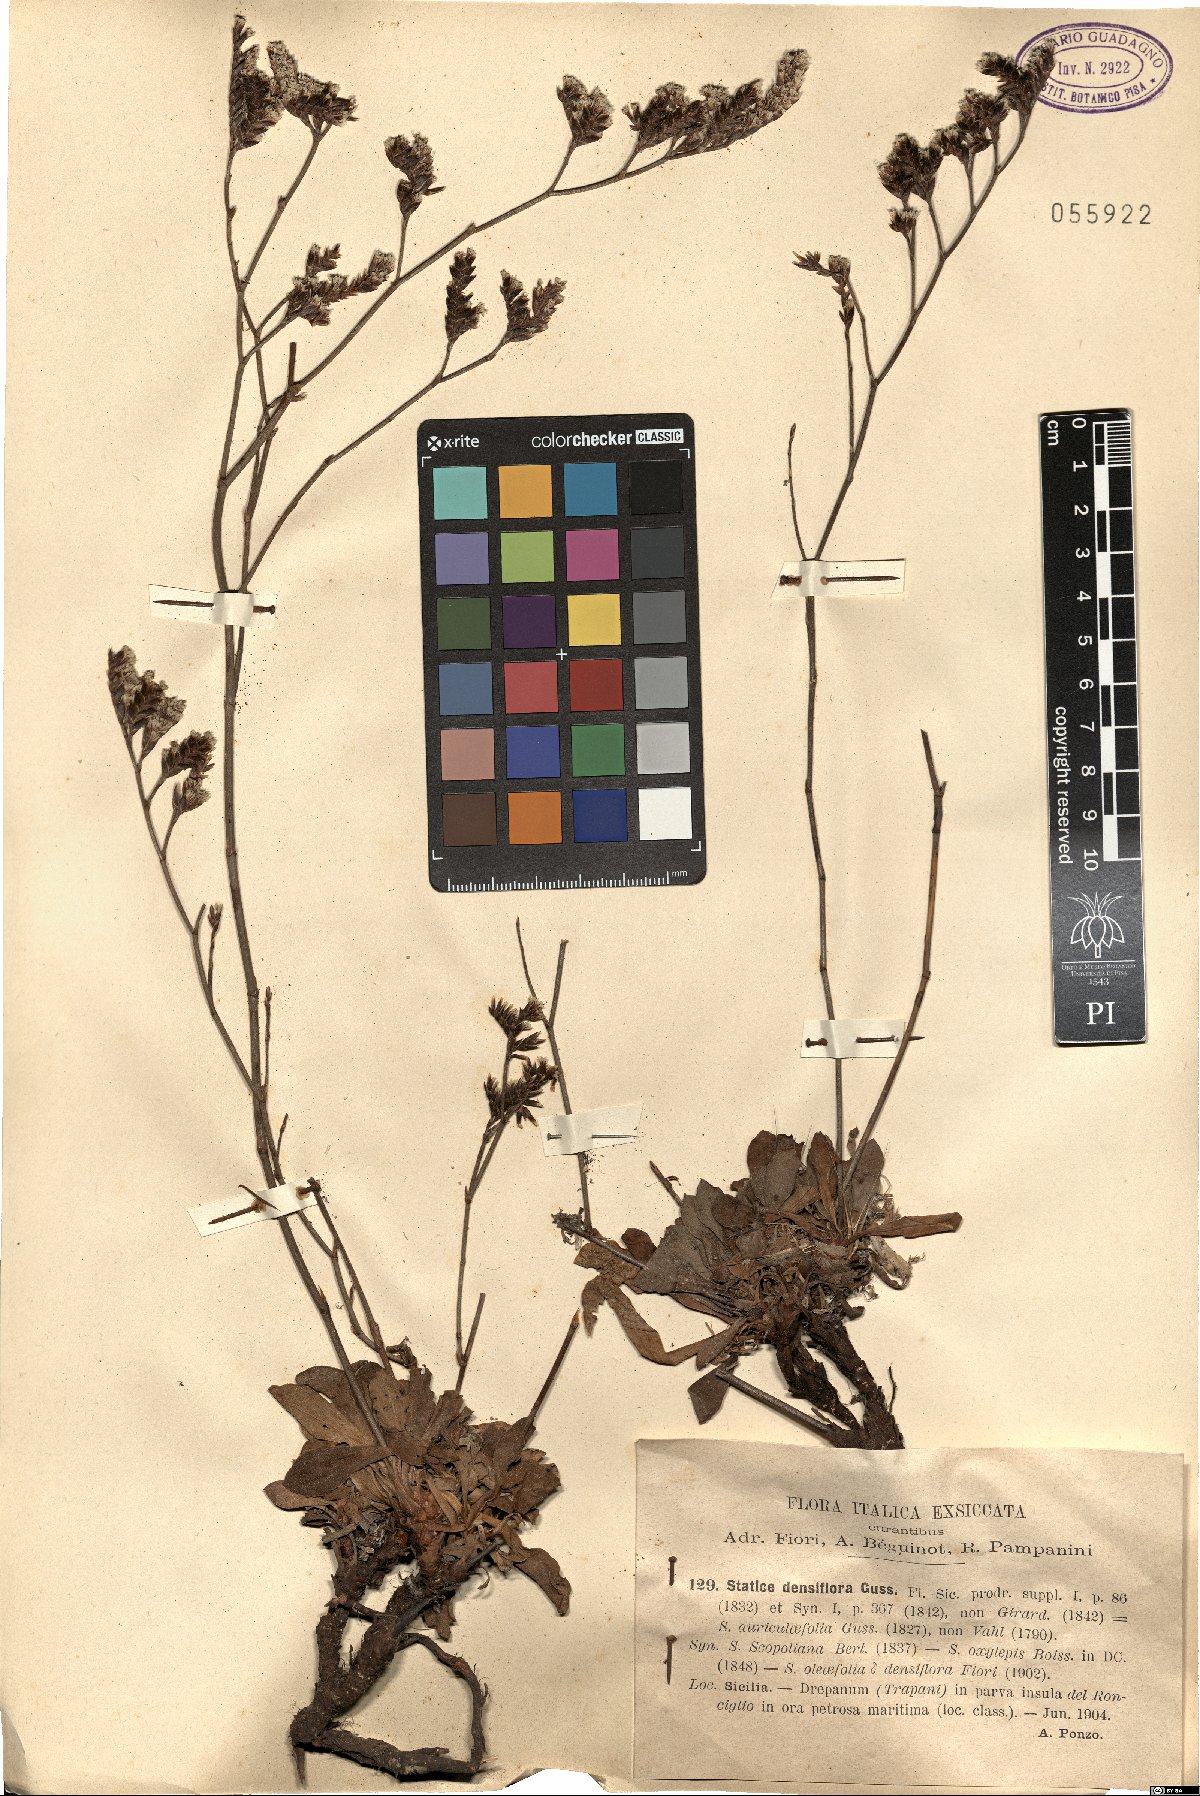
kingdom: Plantae
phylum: Tracheophyta
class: Magnoliopsida
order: Caryophyllales
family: Plumbaginaceae
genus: Limonium
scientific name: Limonium densiflorum
